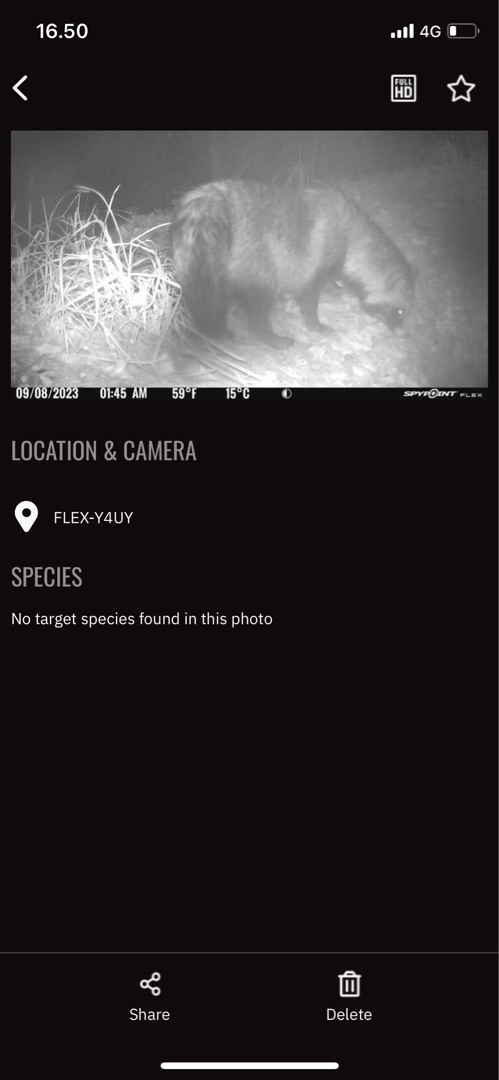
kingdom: Animalia
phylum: Chordata
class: Mammalia
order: Carnivora
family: Canidae
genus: Nyctereutes
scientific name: Nyctereutes procyonoides
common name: Mårhund
